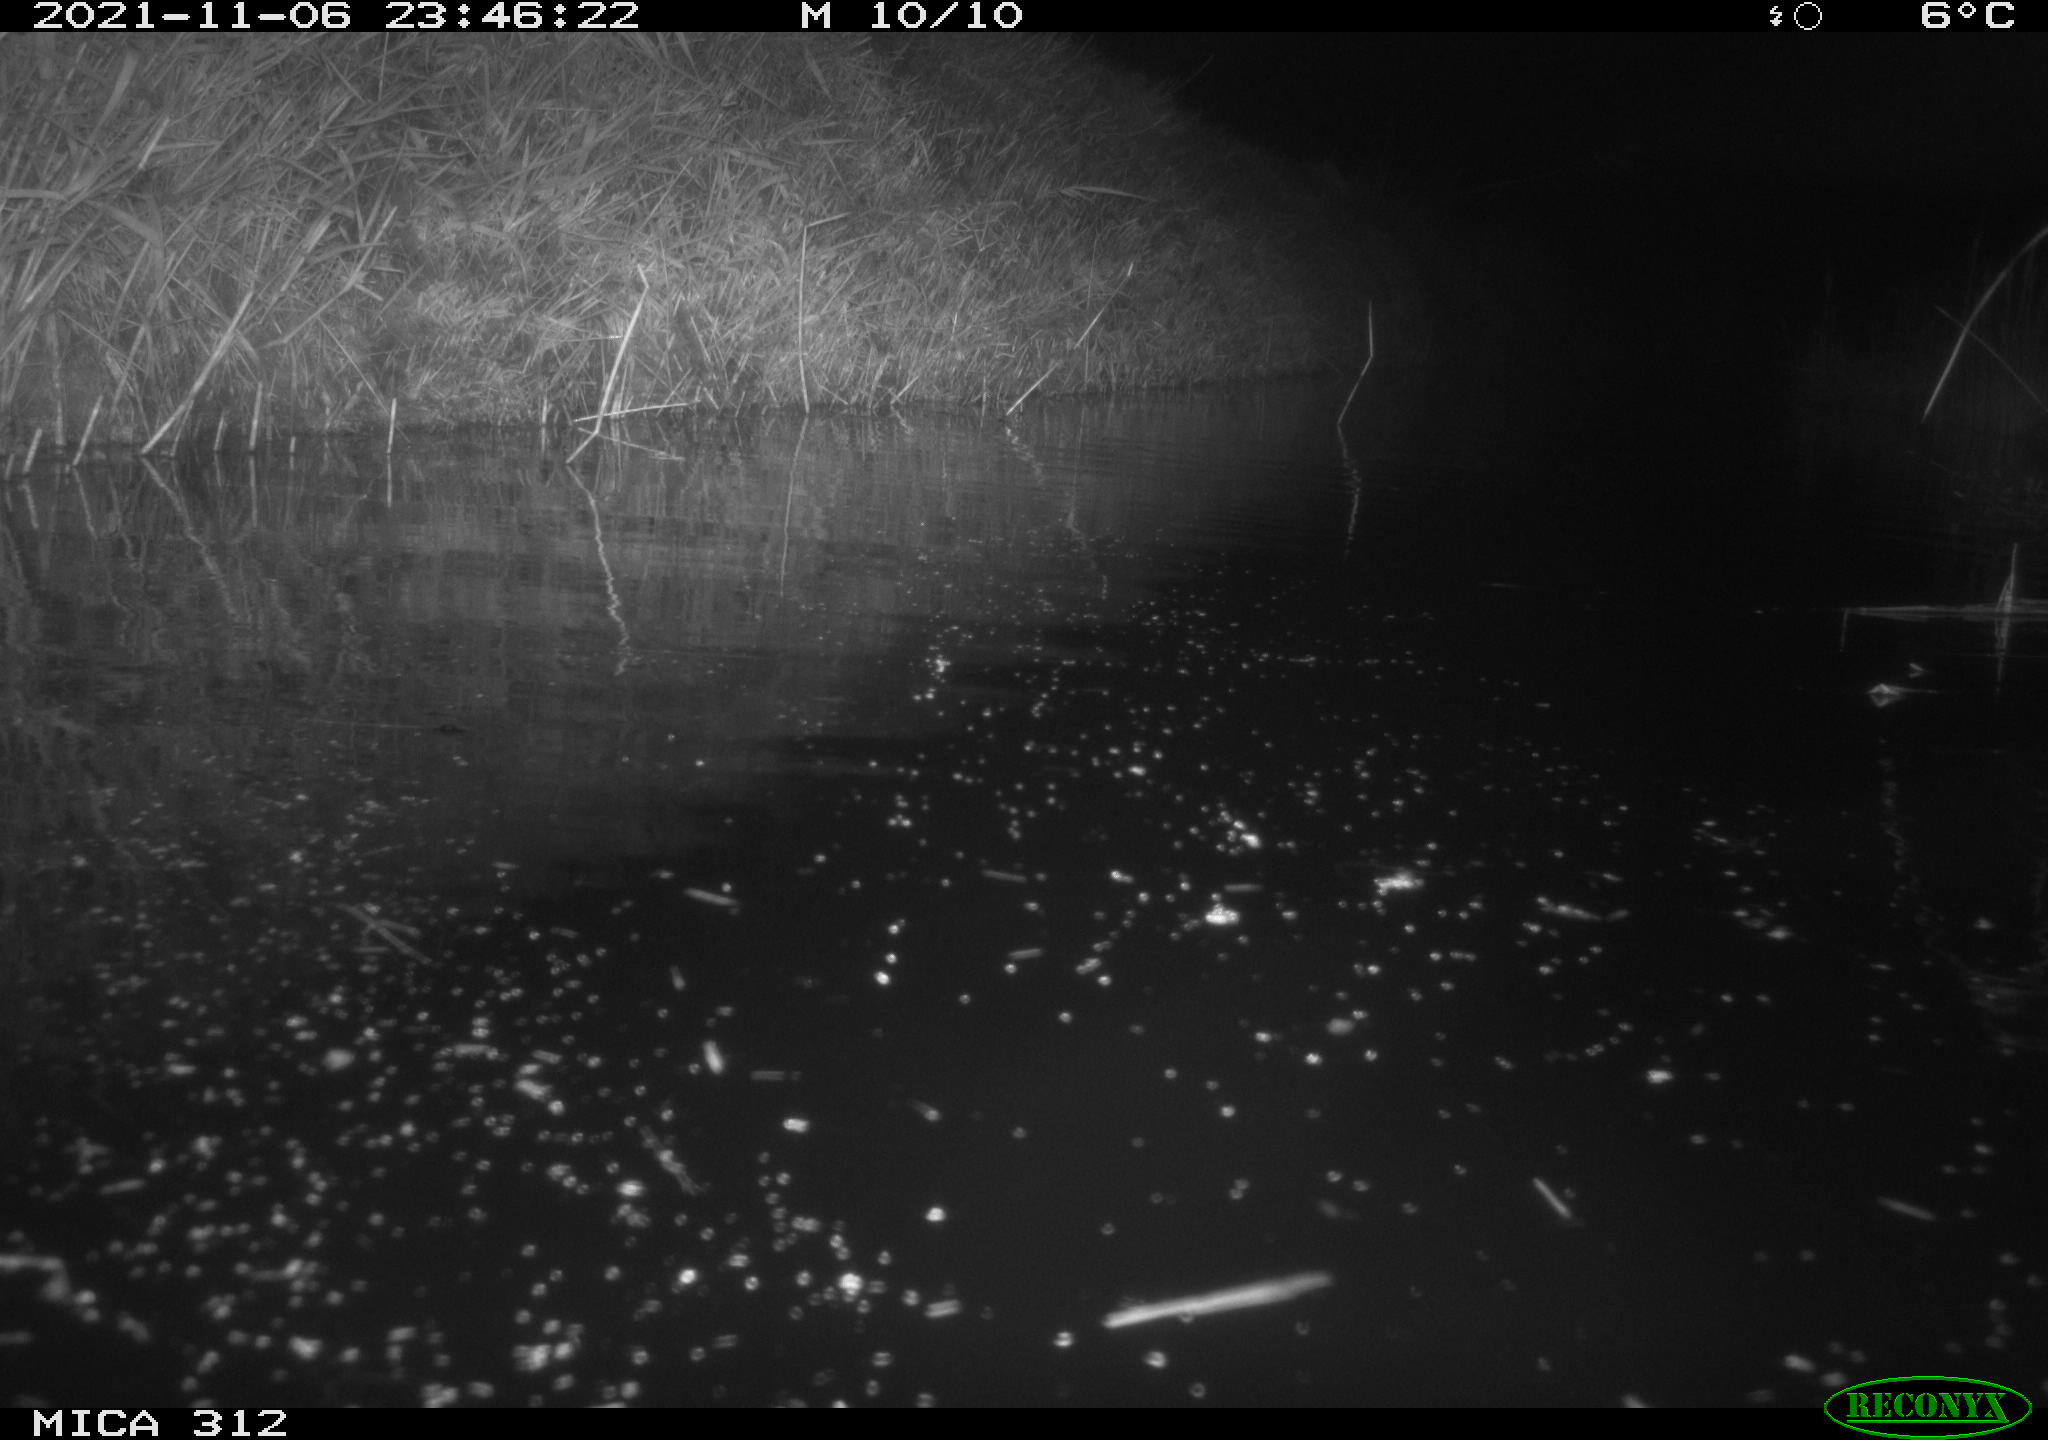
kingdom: Animalia
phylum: Chordata
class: Mammalia
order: Rodentia
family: Muridae
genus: Rattus
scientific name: Rattus norvegicus
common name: Brown rat
